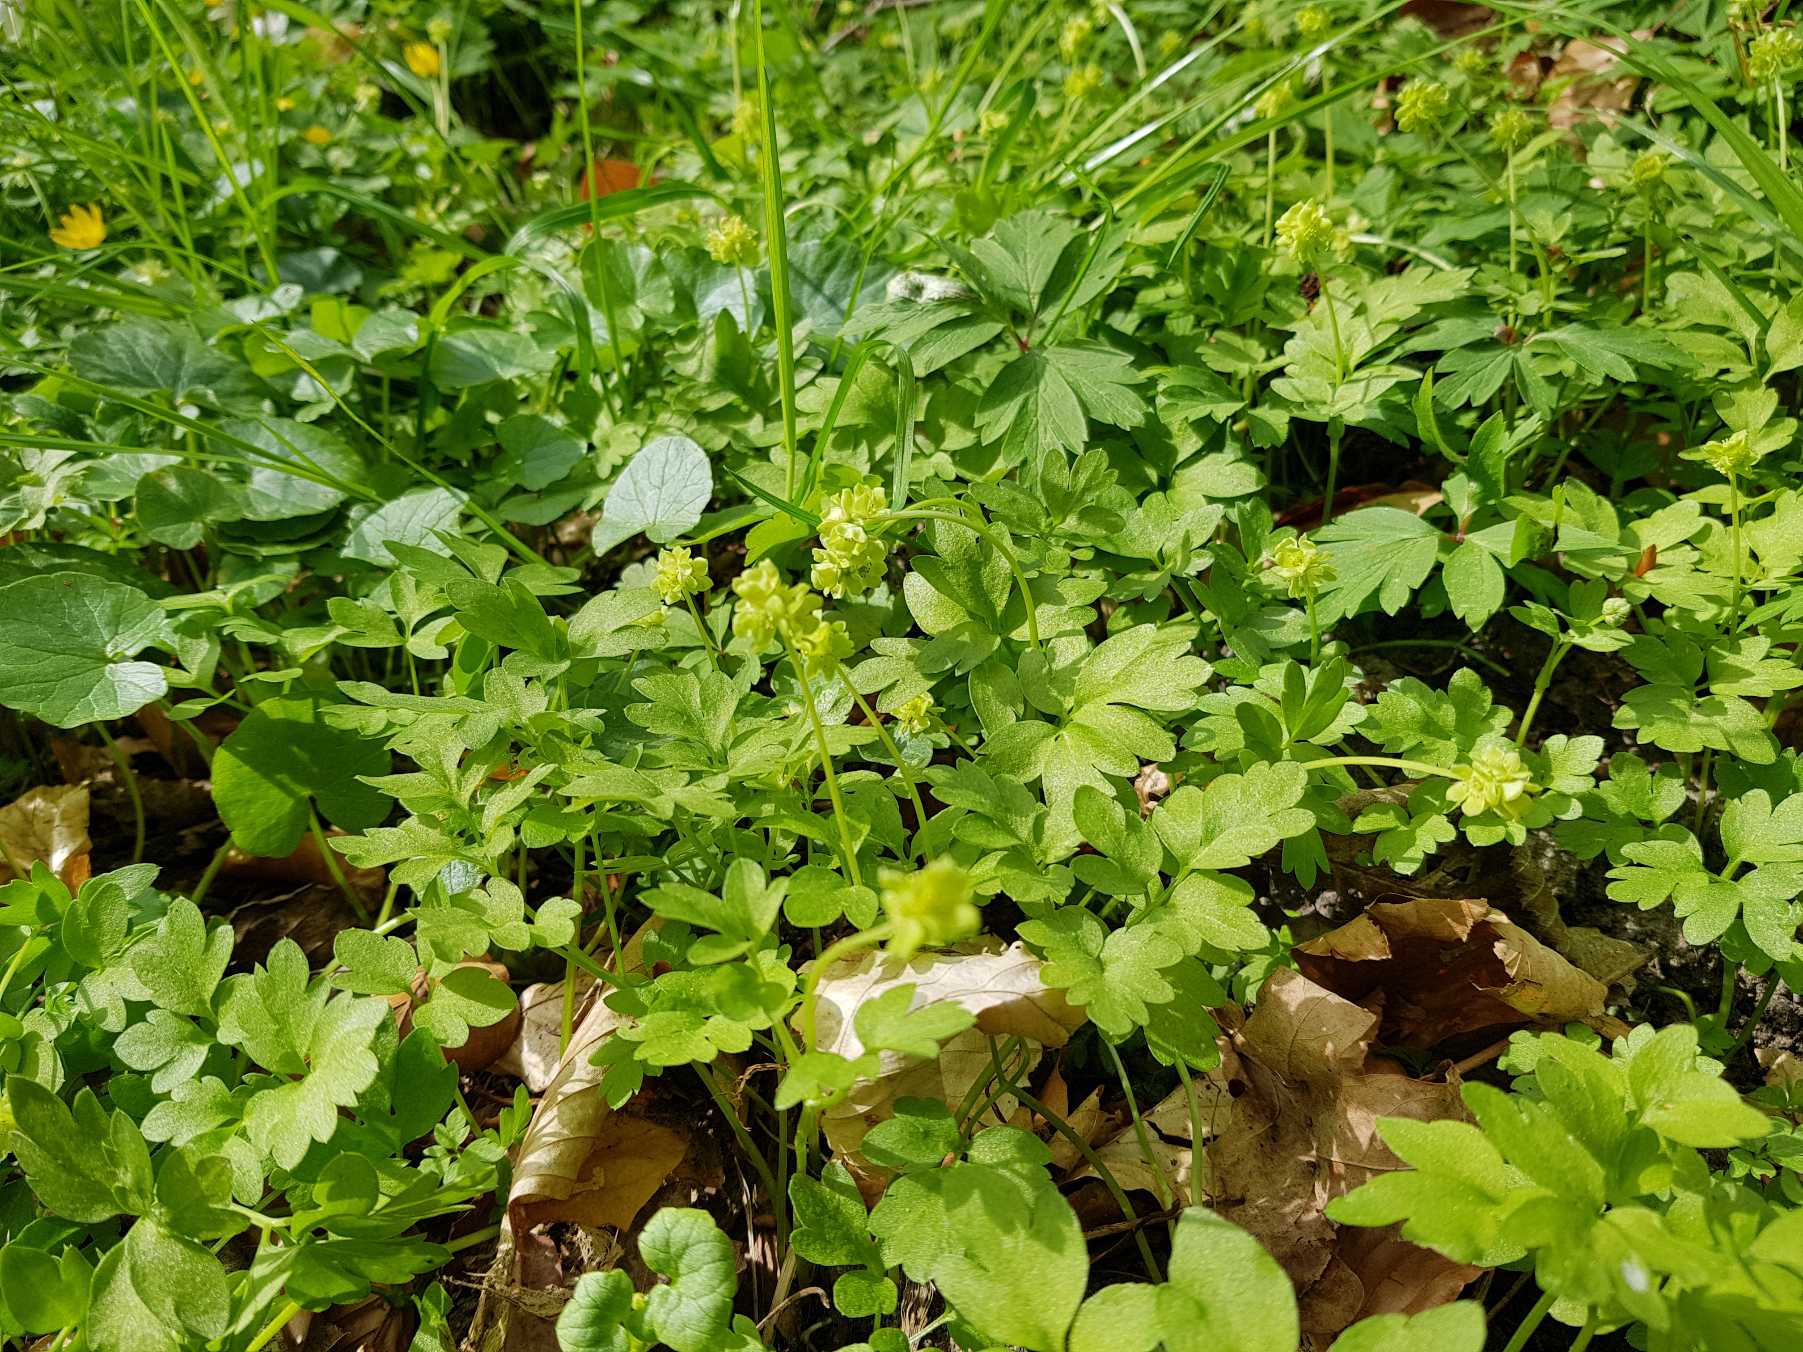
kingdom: Plantae
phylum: Tracheophyta
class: Magnoliopsida
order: Dipsacales
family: Viburnaceae
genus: Adoxa
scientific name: Adoxa moschatellina
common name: Desmerurt
